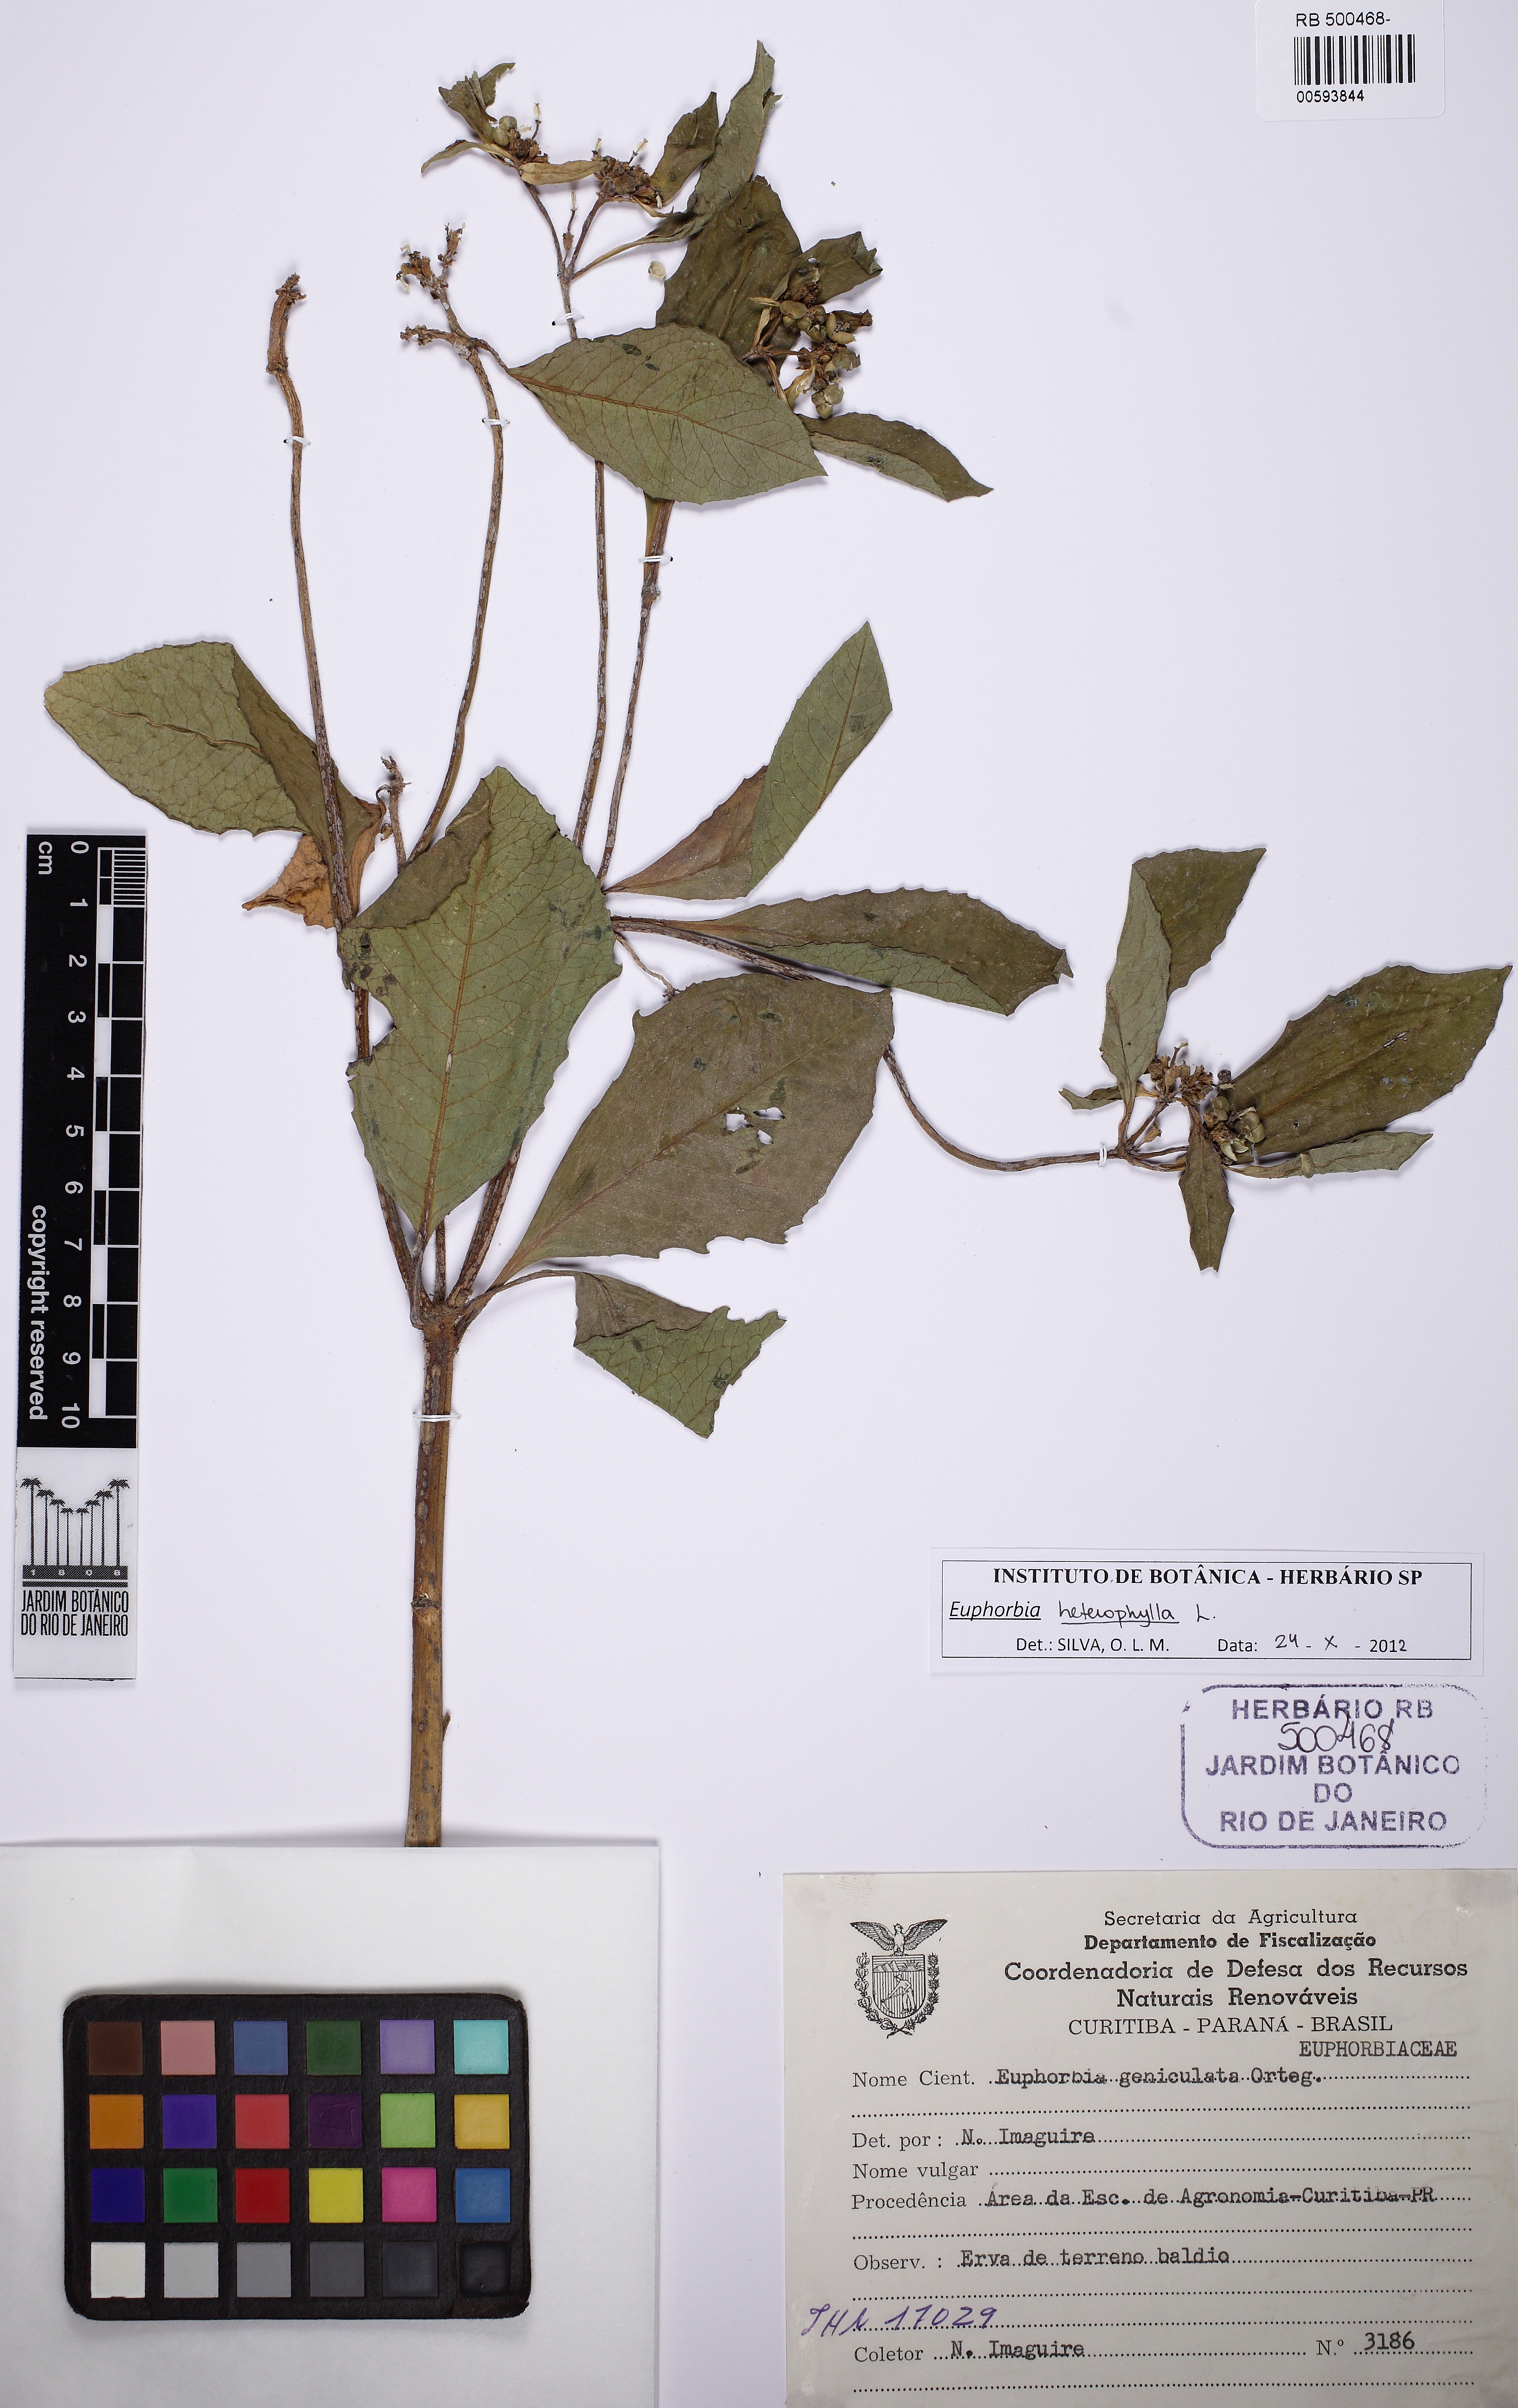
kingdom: Plantae
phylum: Tracheophyta
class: Magnoliopsida
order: Malpighiales
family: Euphorbiaceae
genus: Euphorbia
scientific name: Euphorbia heterophylla
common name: Mexican fireplant
